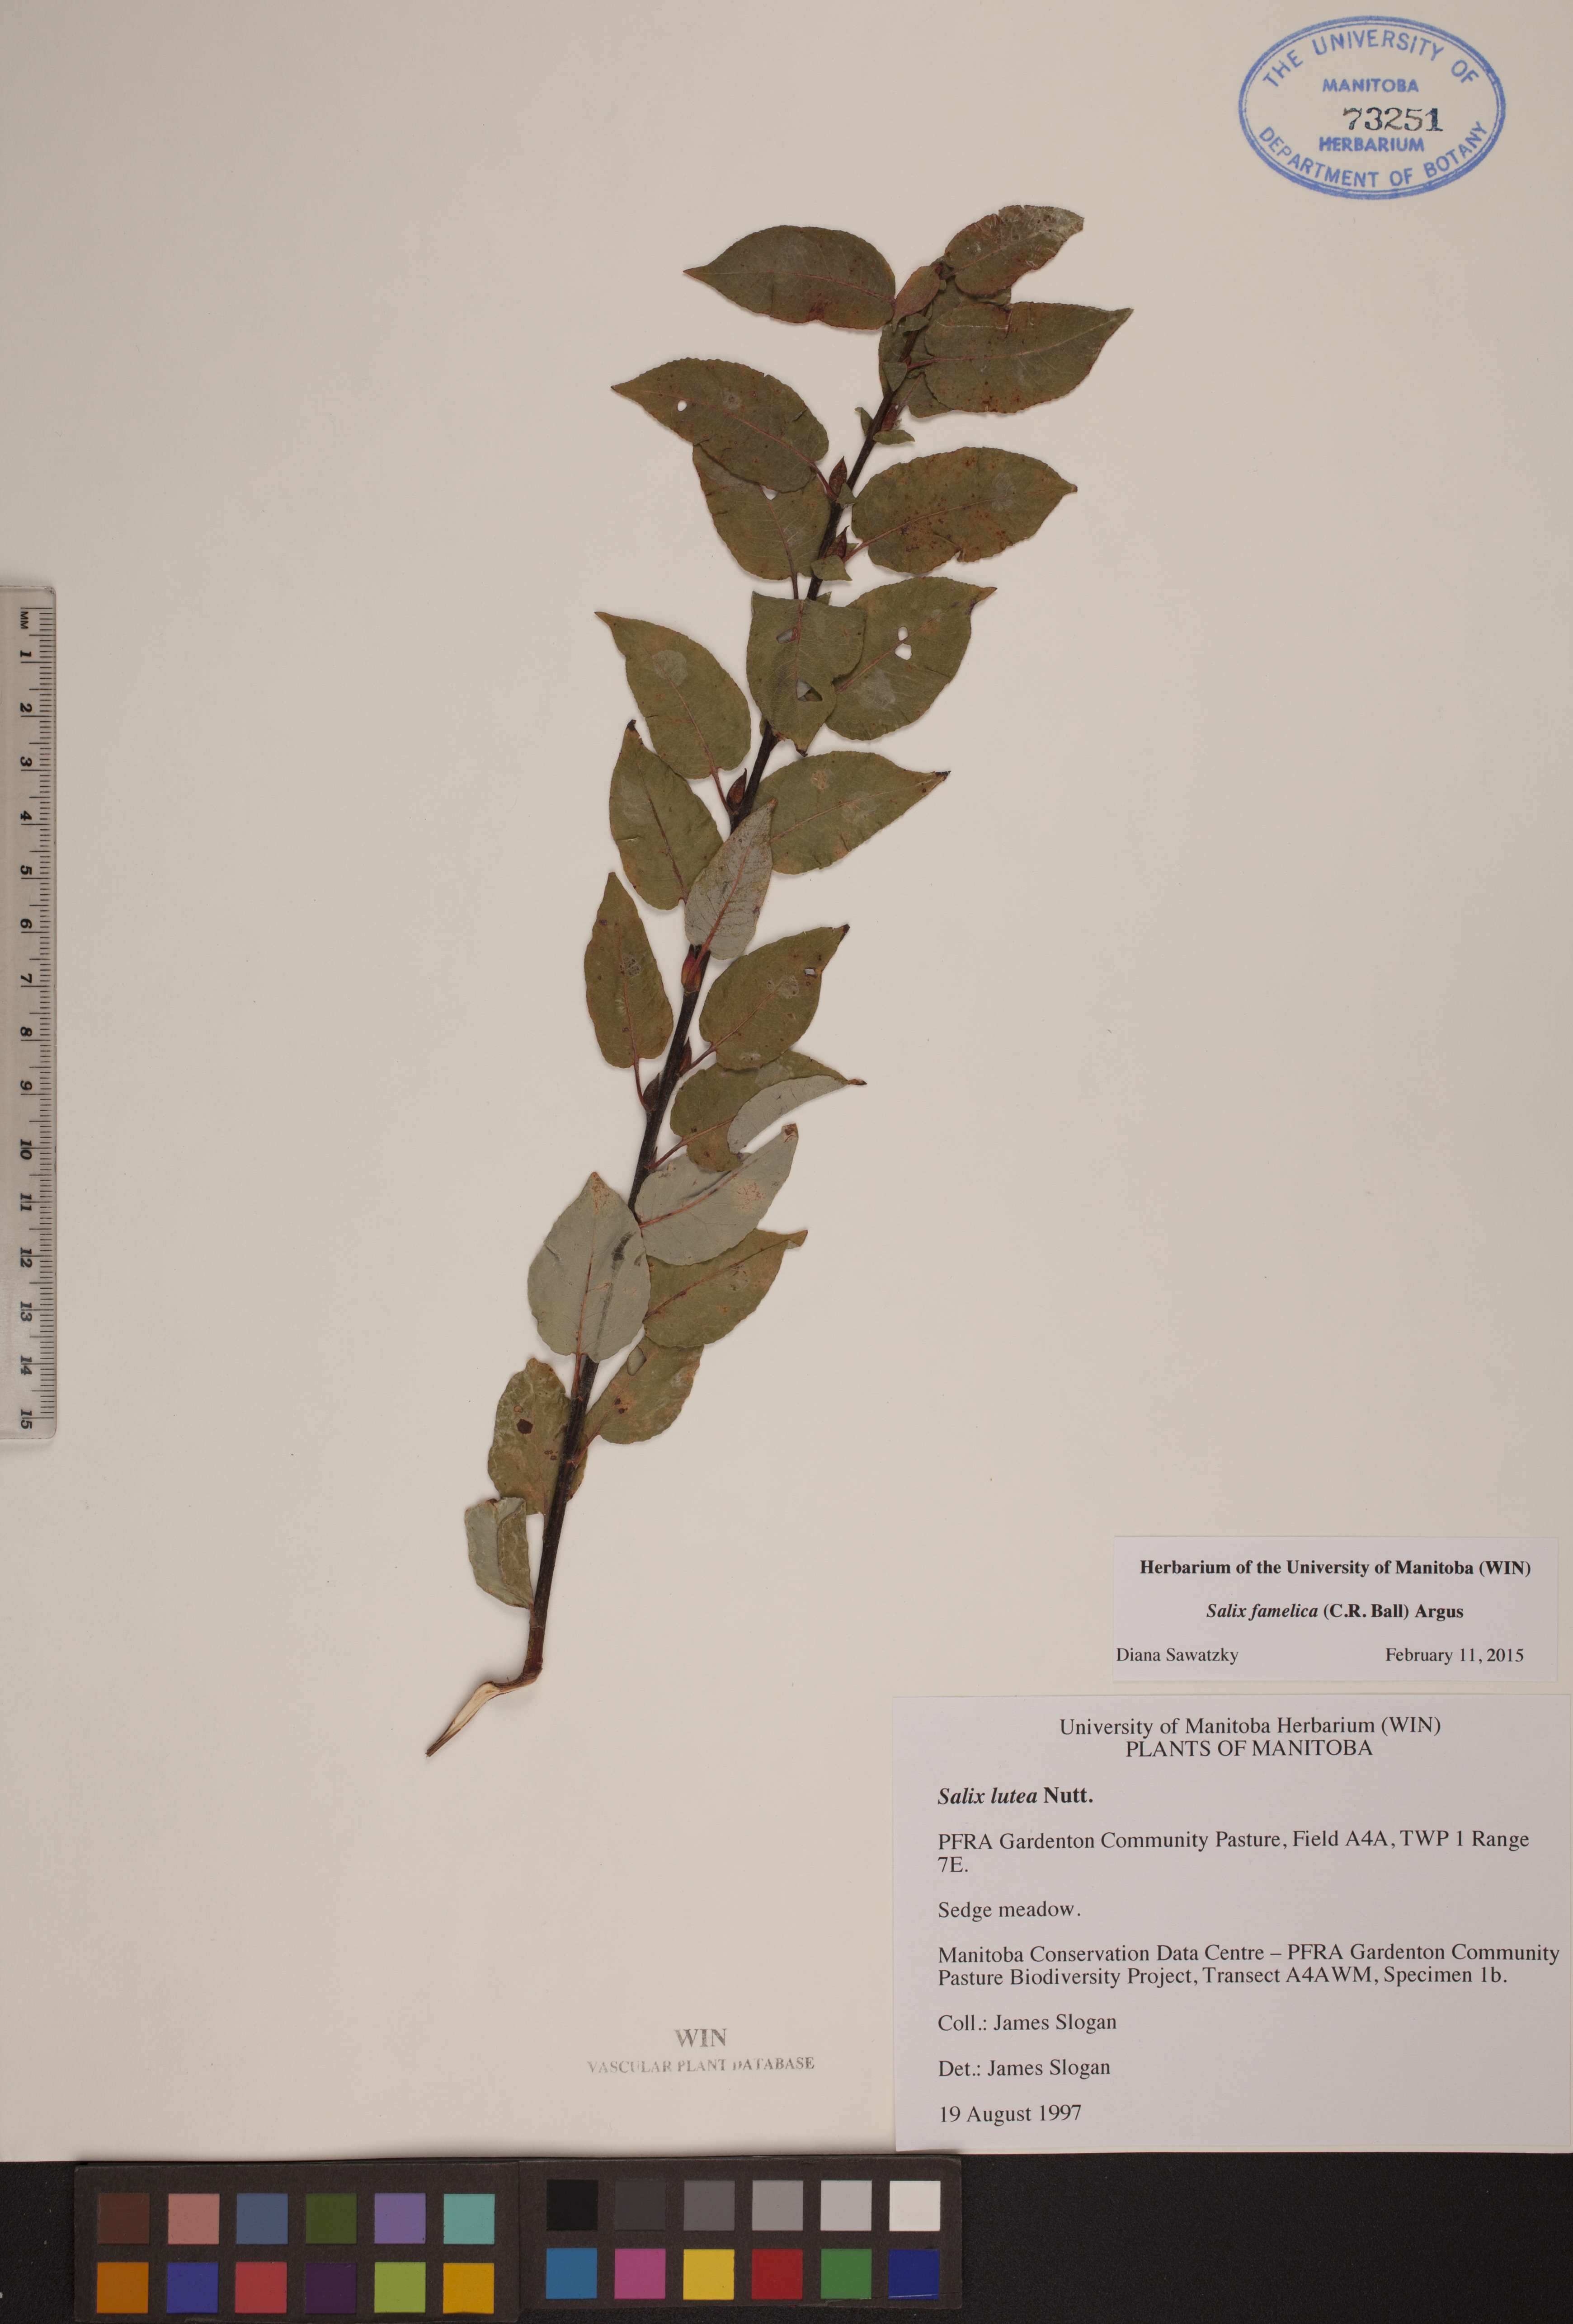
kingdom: Plantae
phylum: Tracheophyta
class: Magnoliopsida
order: Malpighiales
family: Salicaceae
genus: Salix
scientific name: Salix famelica
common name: Hungry willow
